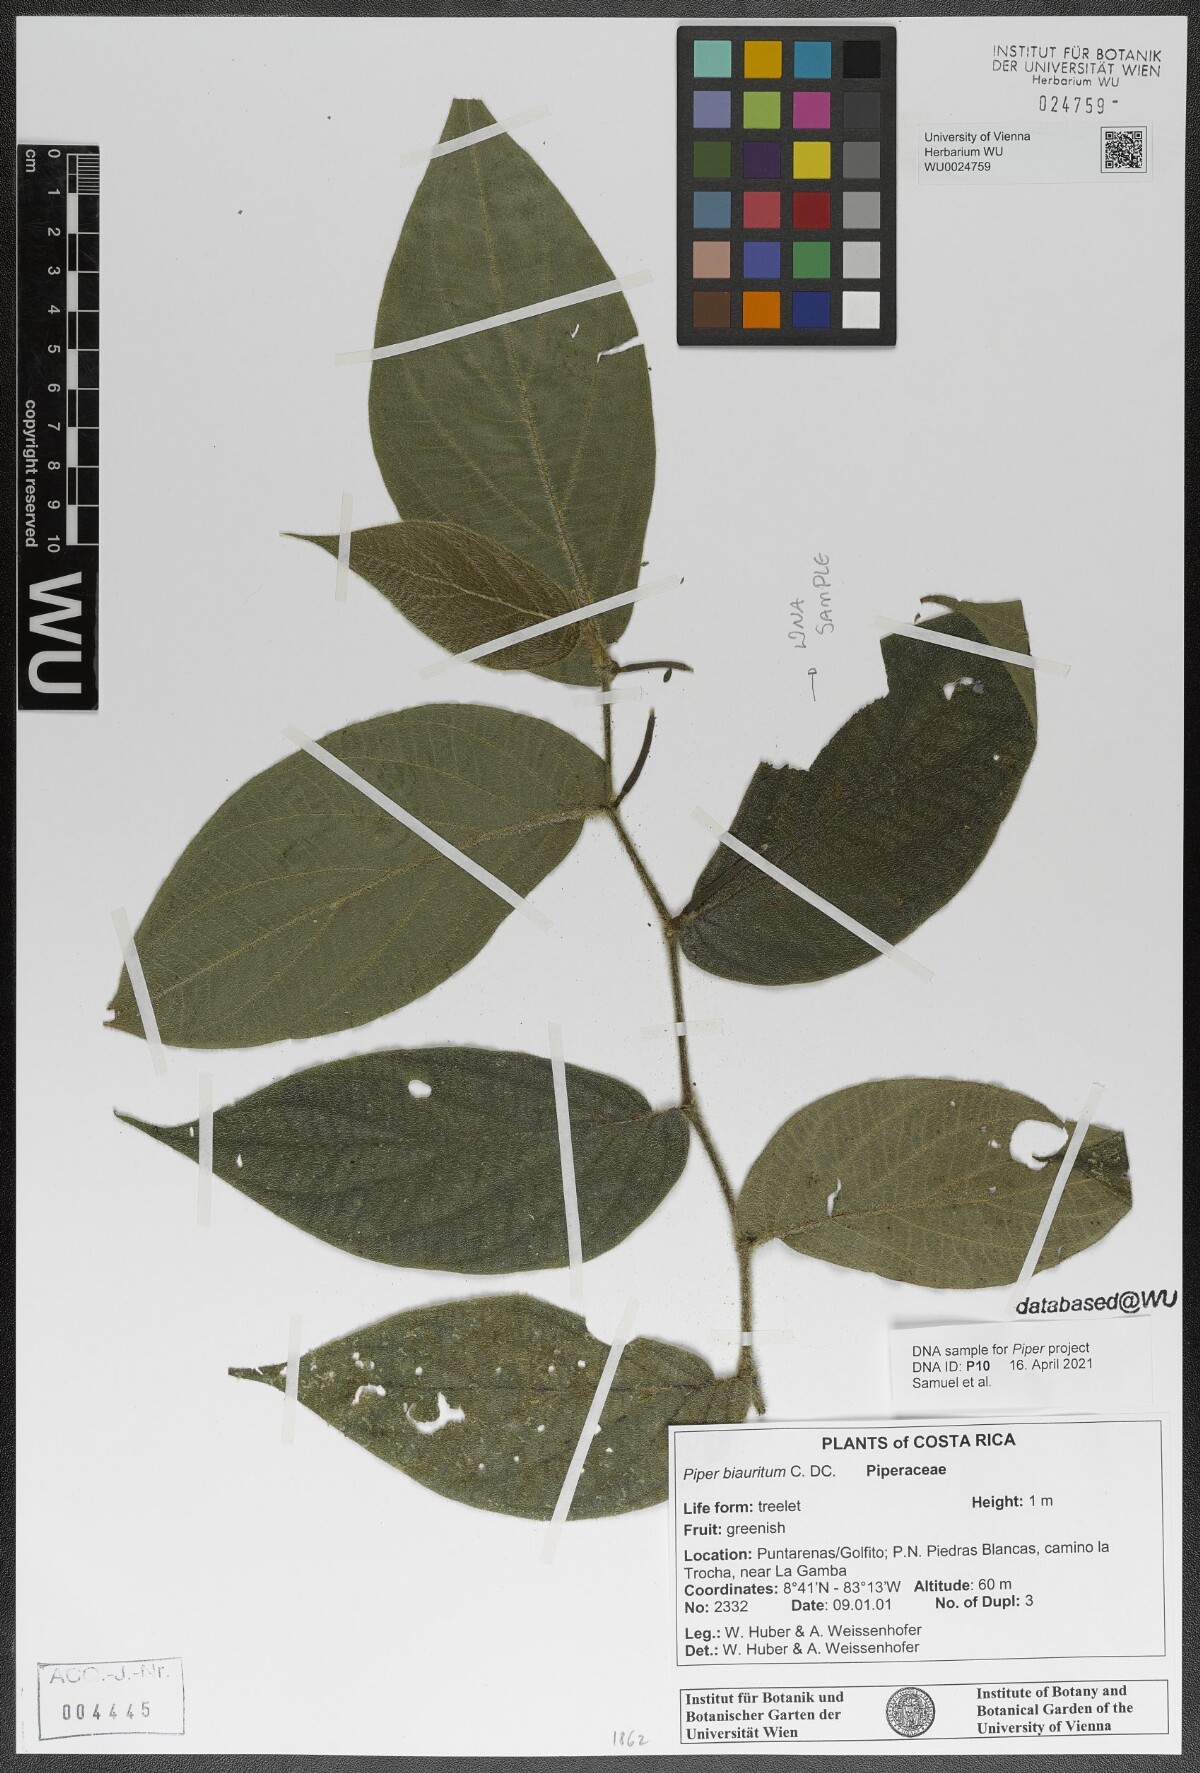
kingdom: Plantae
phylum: Tracheophyta
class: Magnoliopsida
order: Piperales
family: Piperaceae
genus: Piper
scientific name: Piper biauritum
